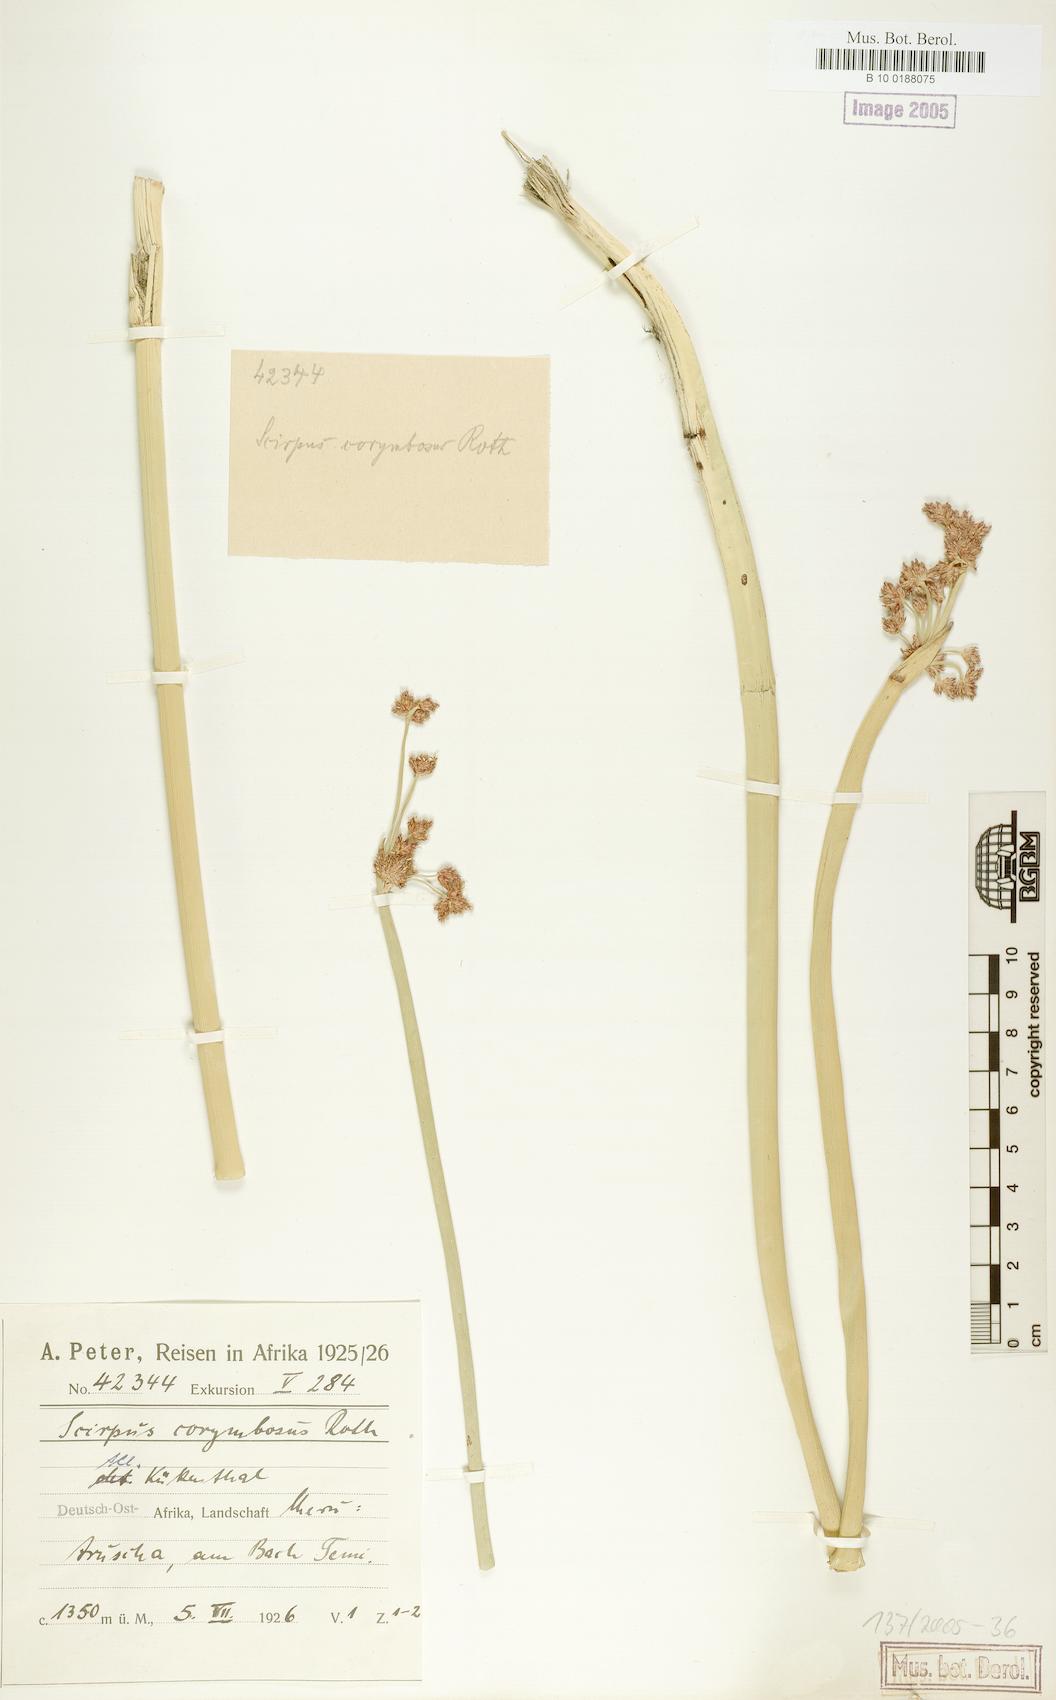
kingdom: Plantae
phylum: Tracheophyta
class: Liliopsida
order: Poales
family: Cyperaceae
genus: Schoenoplectiella
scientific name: Schoenoplectiella brachyceras
